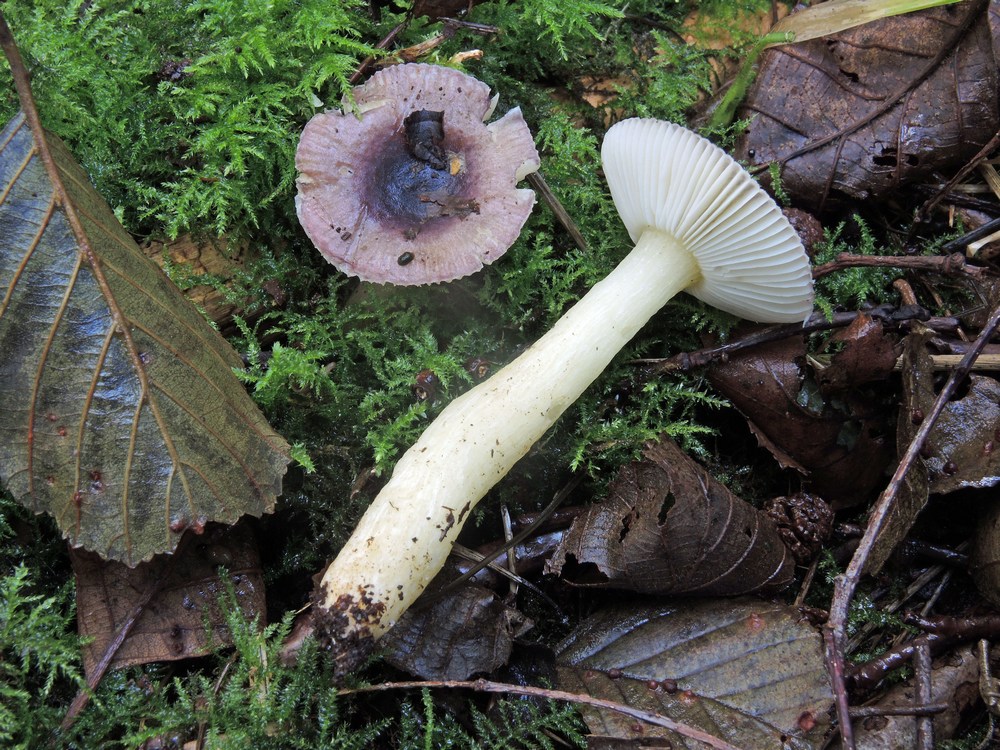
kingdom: Fungi
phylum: Basidiomycota
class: Agaricomycetes
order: Russulales
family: Russulaceae
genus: Russula
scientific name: Russula alnetorum
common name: elle-skørhat
